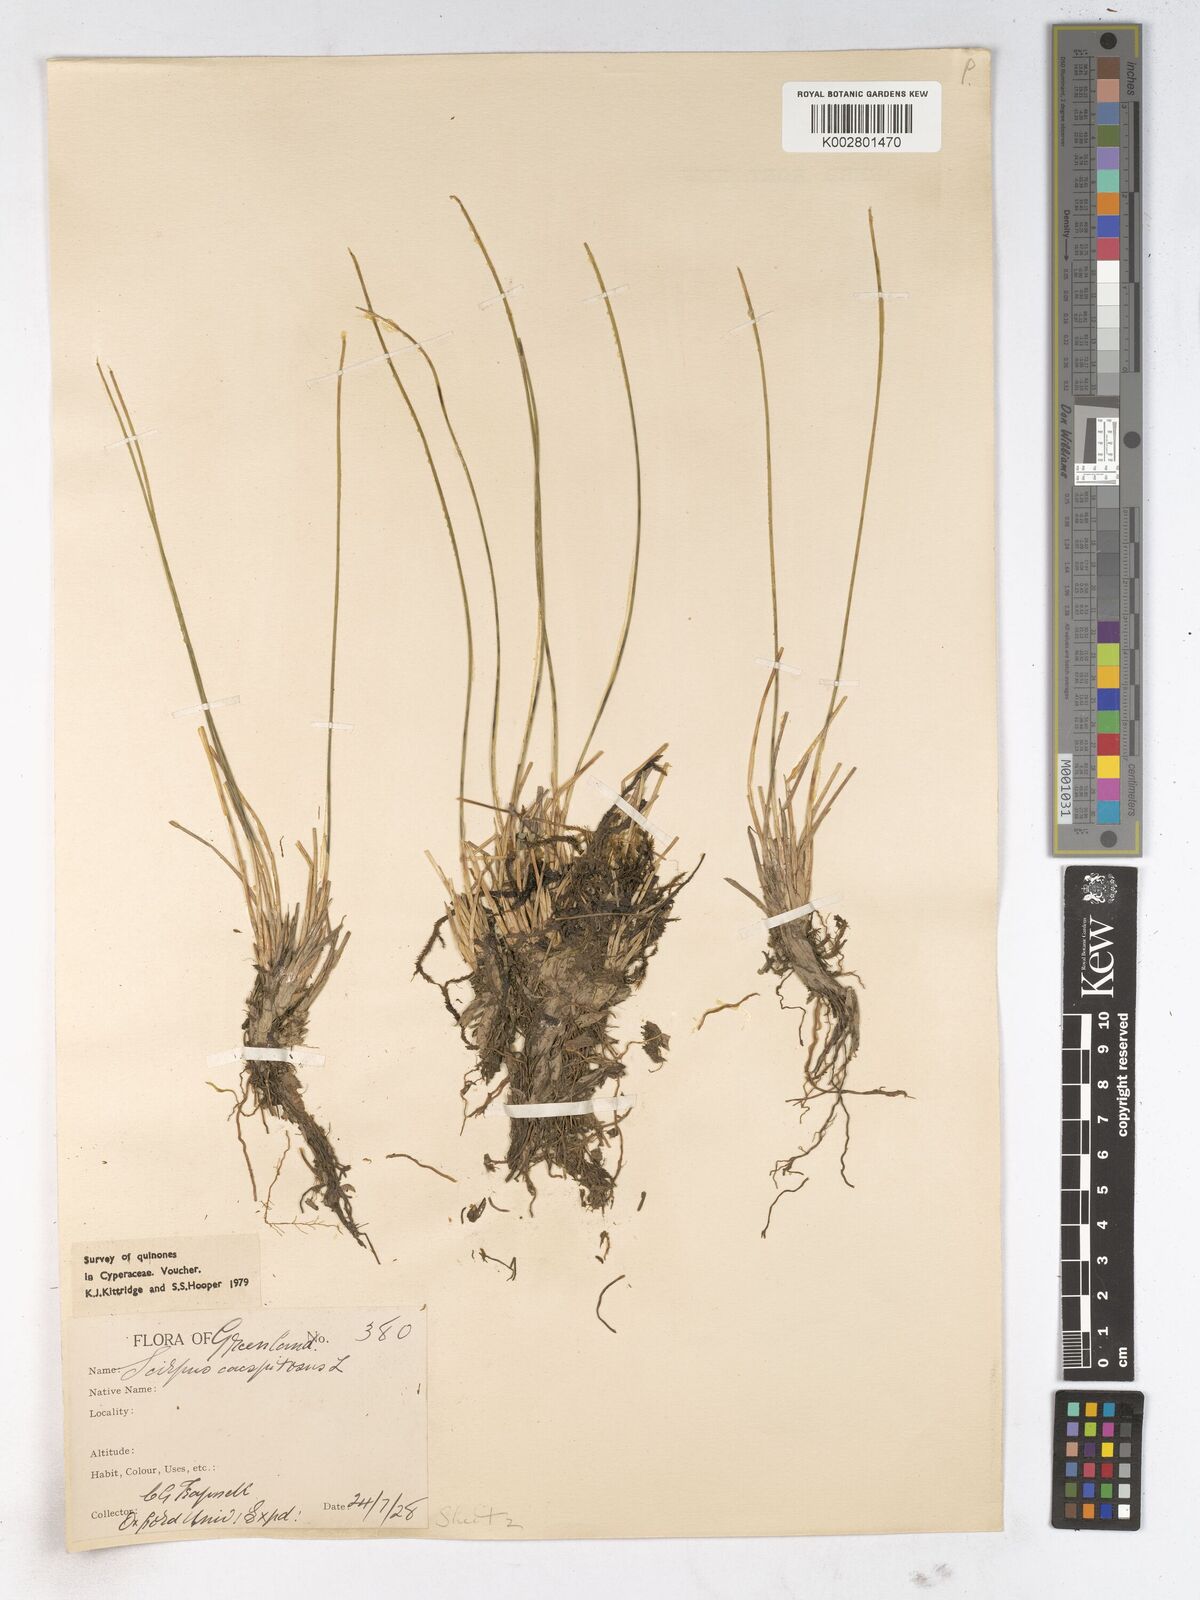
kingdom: Plantae
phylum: Tracheophyta
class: Liliopsida
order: Poales
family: Cyperaceae
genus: Trichophorum
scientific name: Trichophorum cespitosum
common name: Cespitose bulrush
